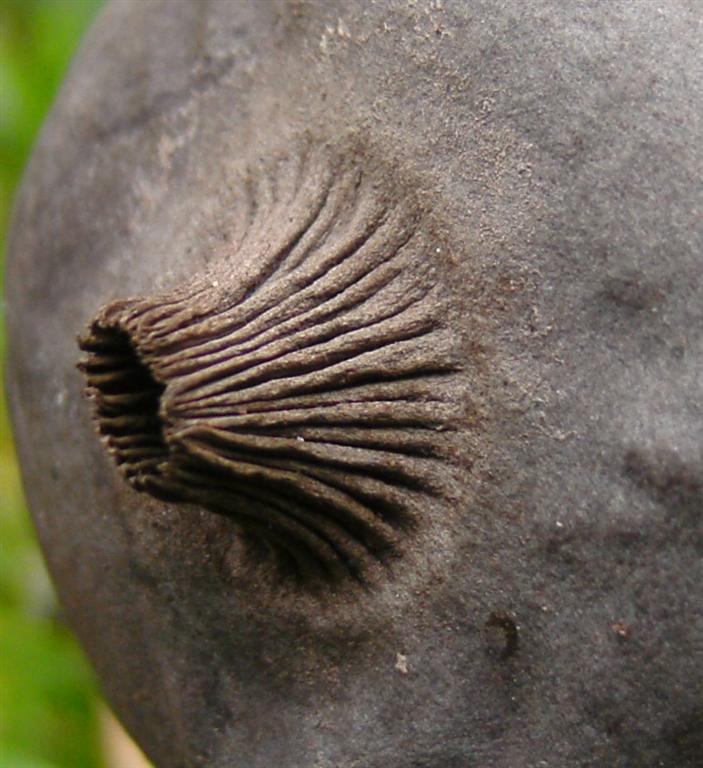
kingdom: Fungi
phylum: Basidiomycota
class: Agaricomycetes
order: Geastrales
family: Geastraceae
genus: Geastrum
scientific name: Geastrum pectinatum
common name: stilket stjernebold
